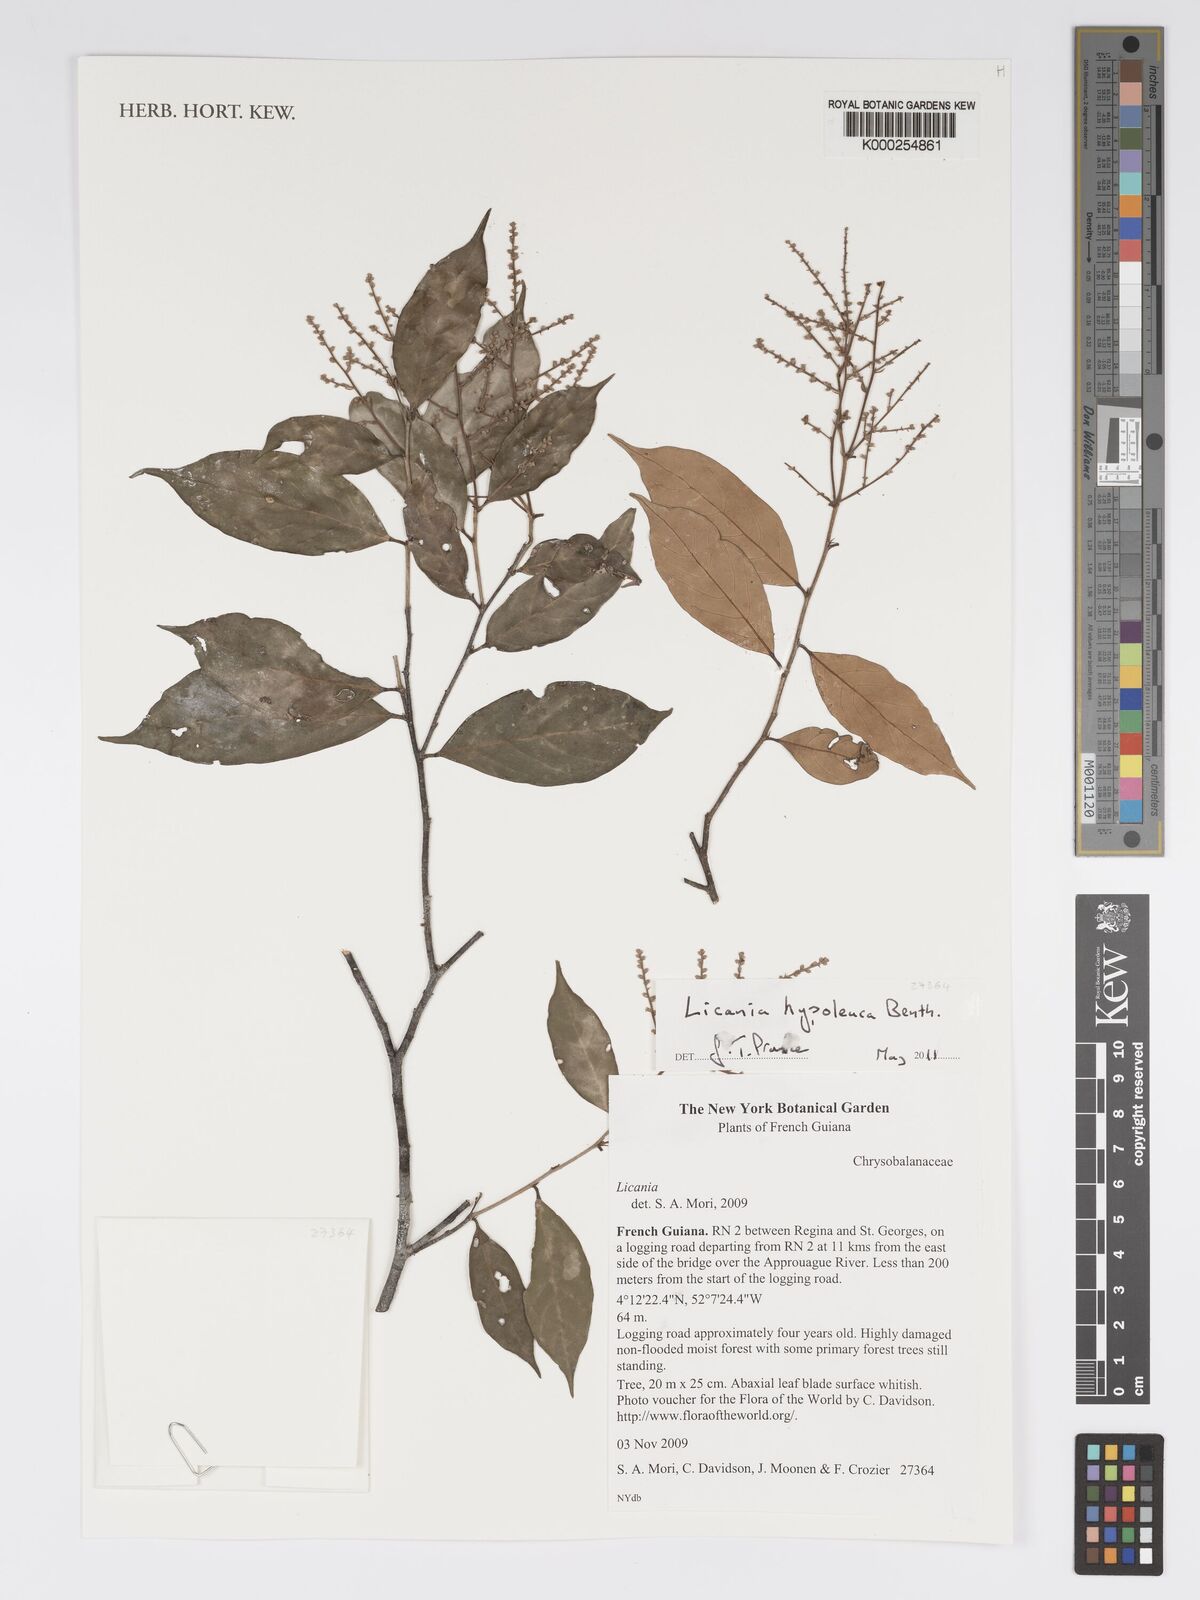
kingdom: Plantae
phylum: Tracheophyta
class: Magnoliopsida
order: Malpighiales
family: Chrysobalanaceae
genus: Licania
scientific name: Licania hypoleuca
